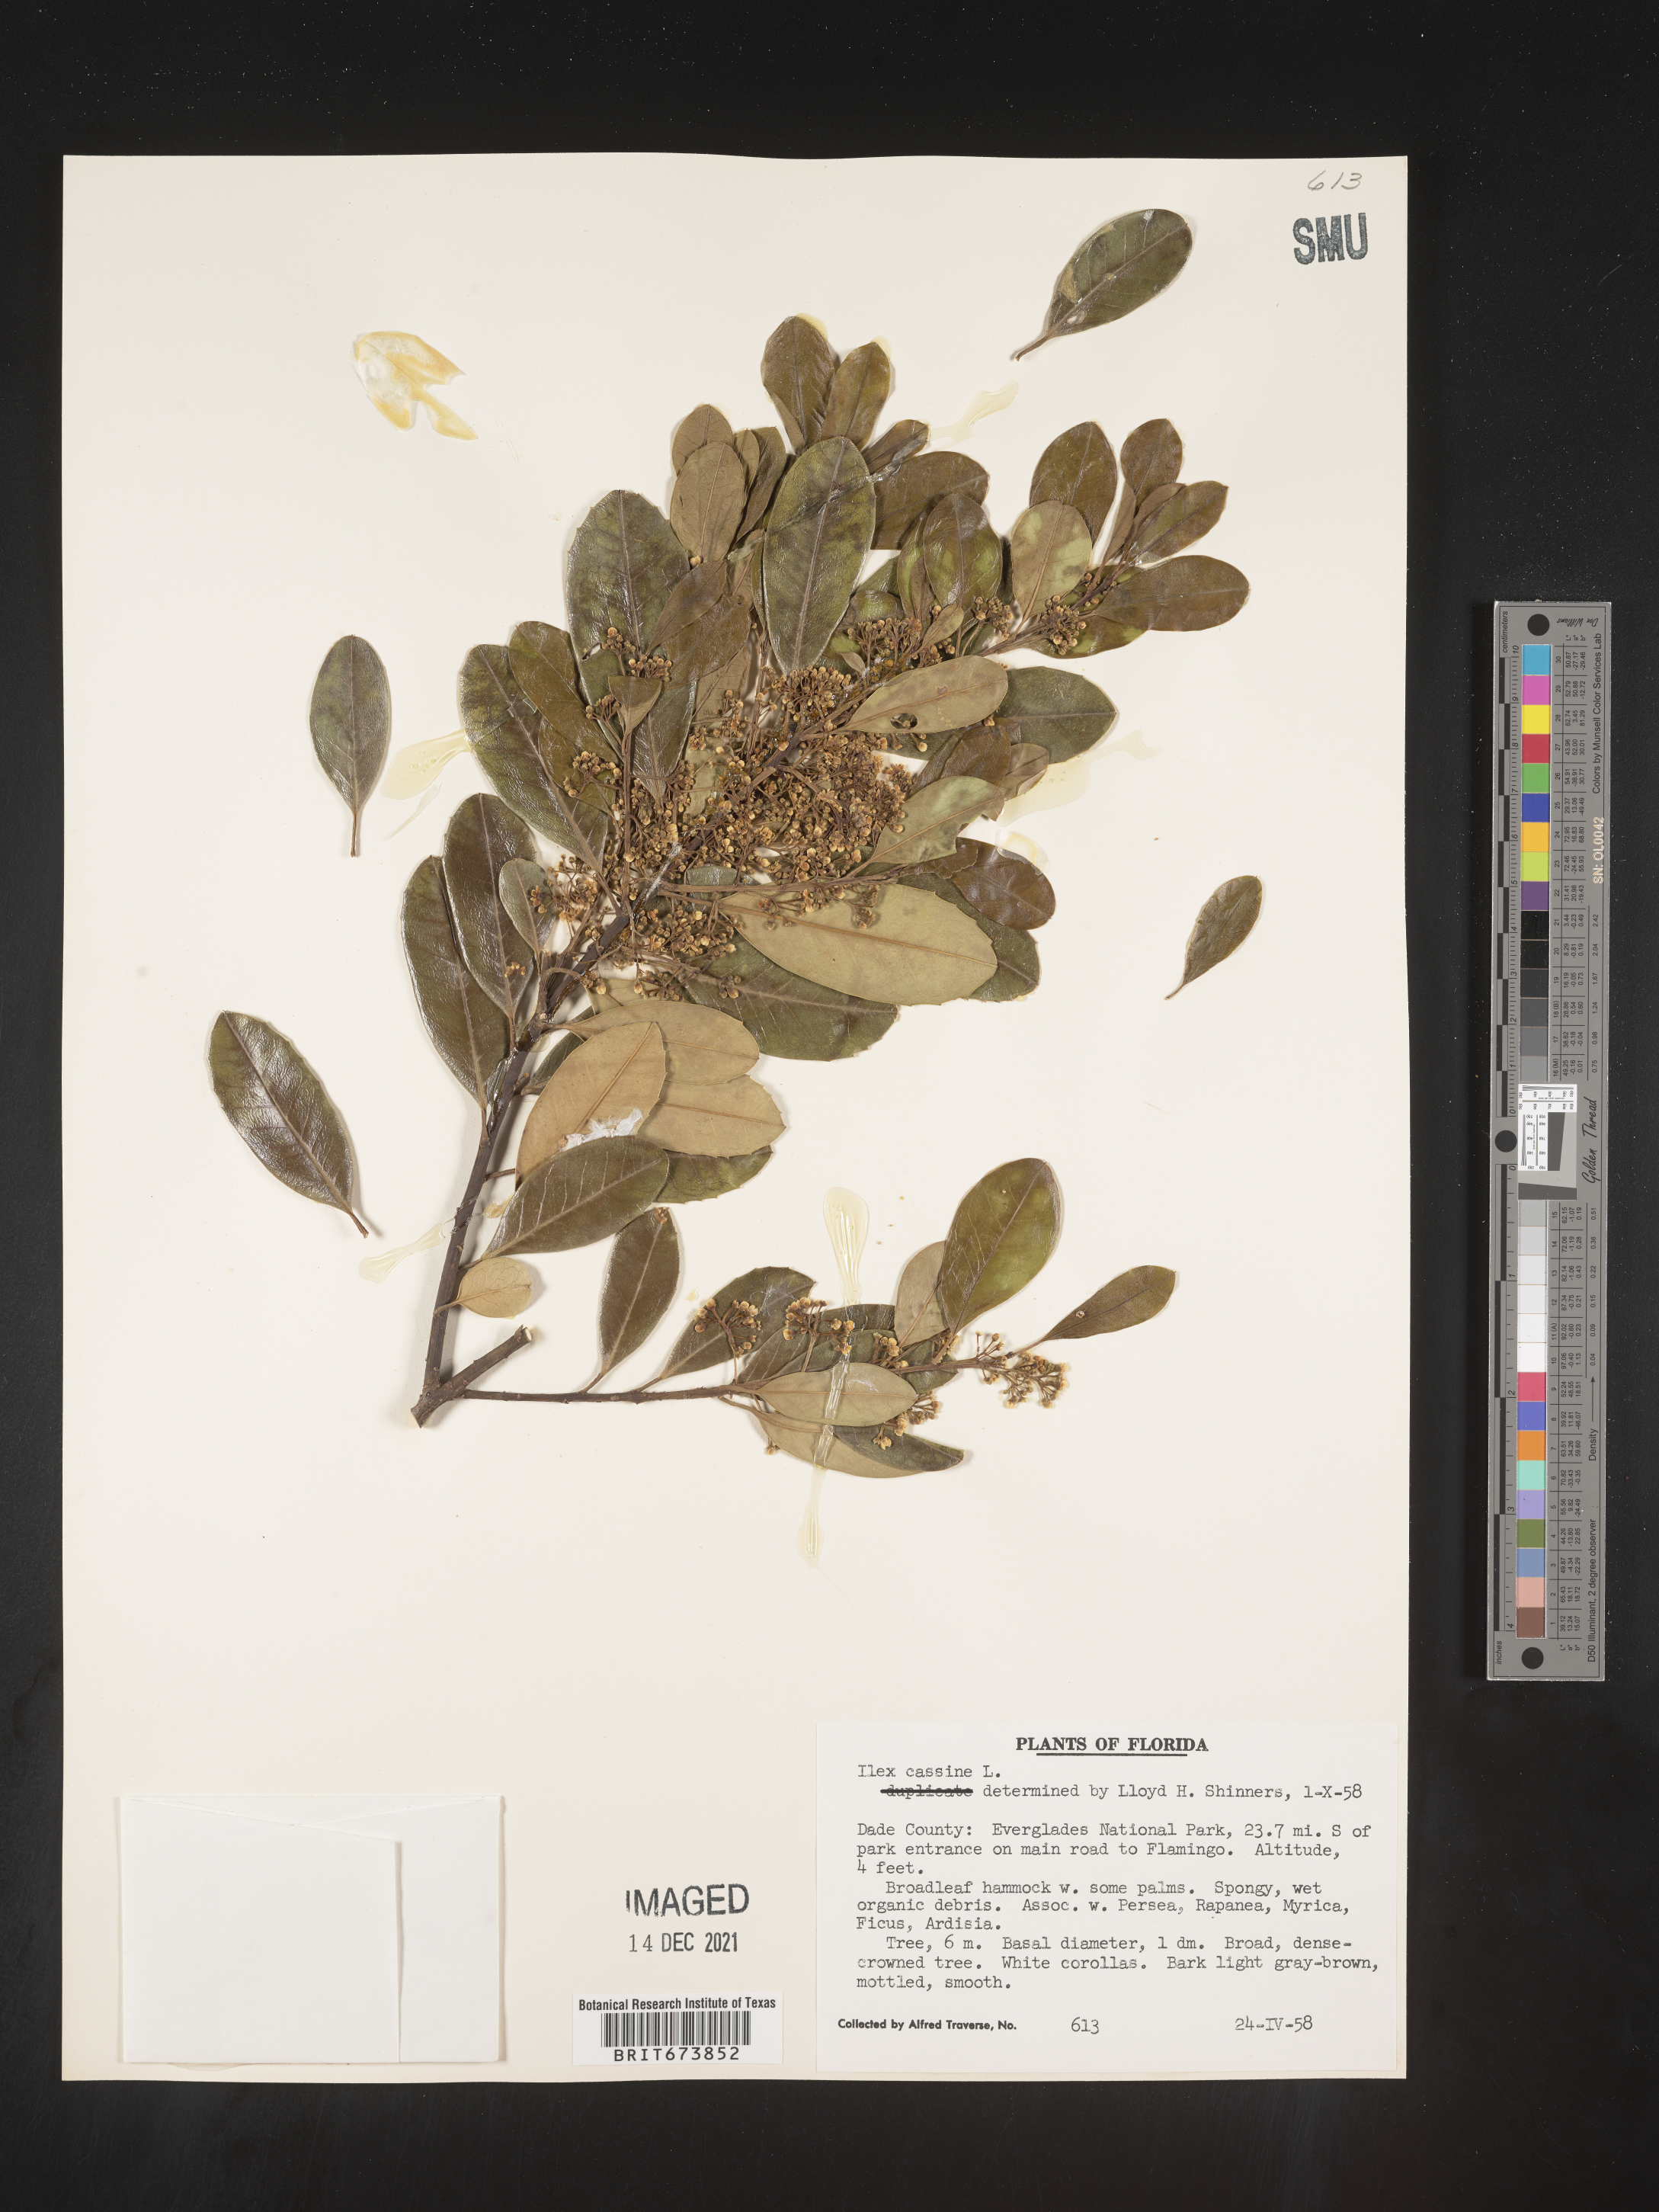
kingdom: Plantae
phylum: Tracheophyta
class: Magnoliopsida
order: Aquifoliales
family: Aquifoliaceae
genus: Ilex
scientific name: Ilex myrtifolia
